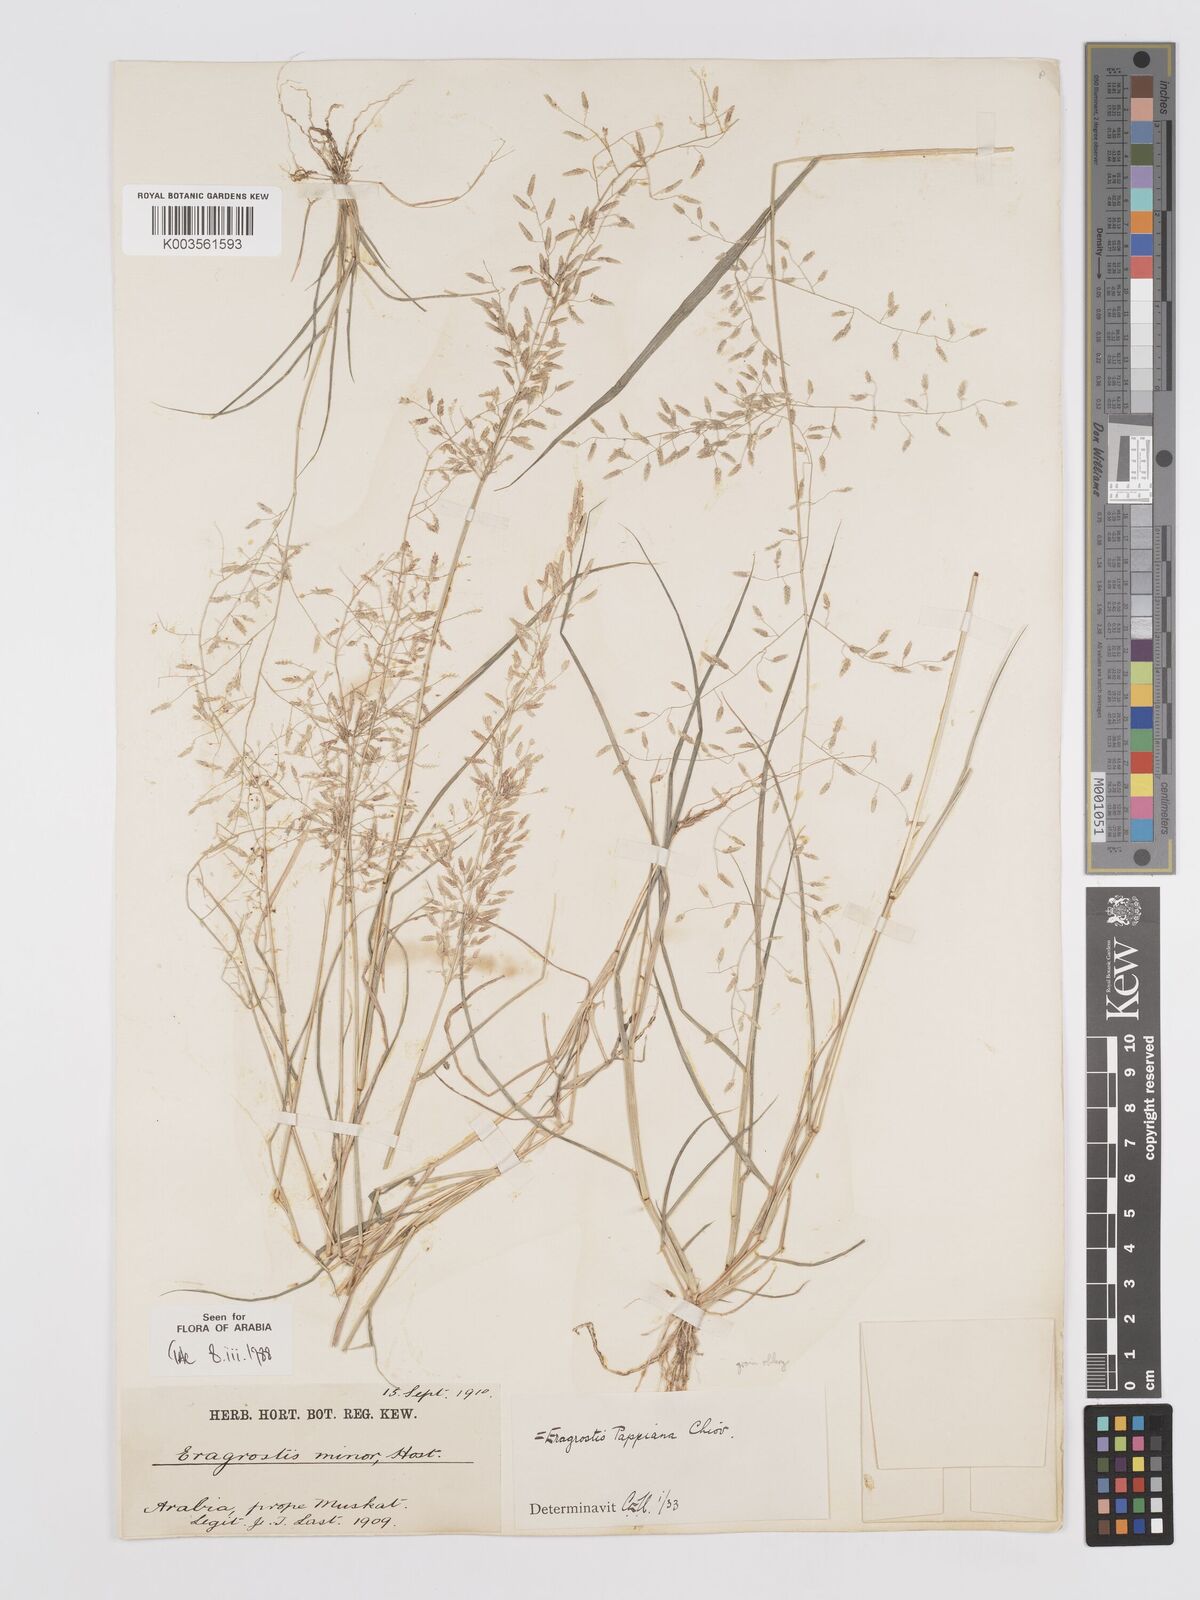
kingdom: Plantae
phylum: Tracheophyta
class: Liliopsida
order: Poales
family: Poaceae
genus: Eragrostis
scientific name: Eragrostis minor
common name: Small love-grass
